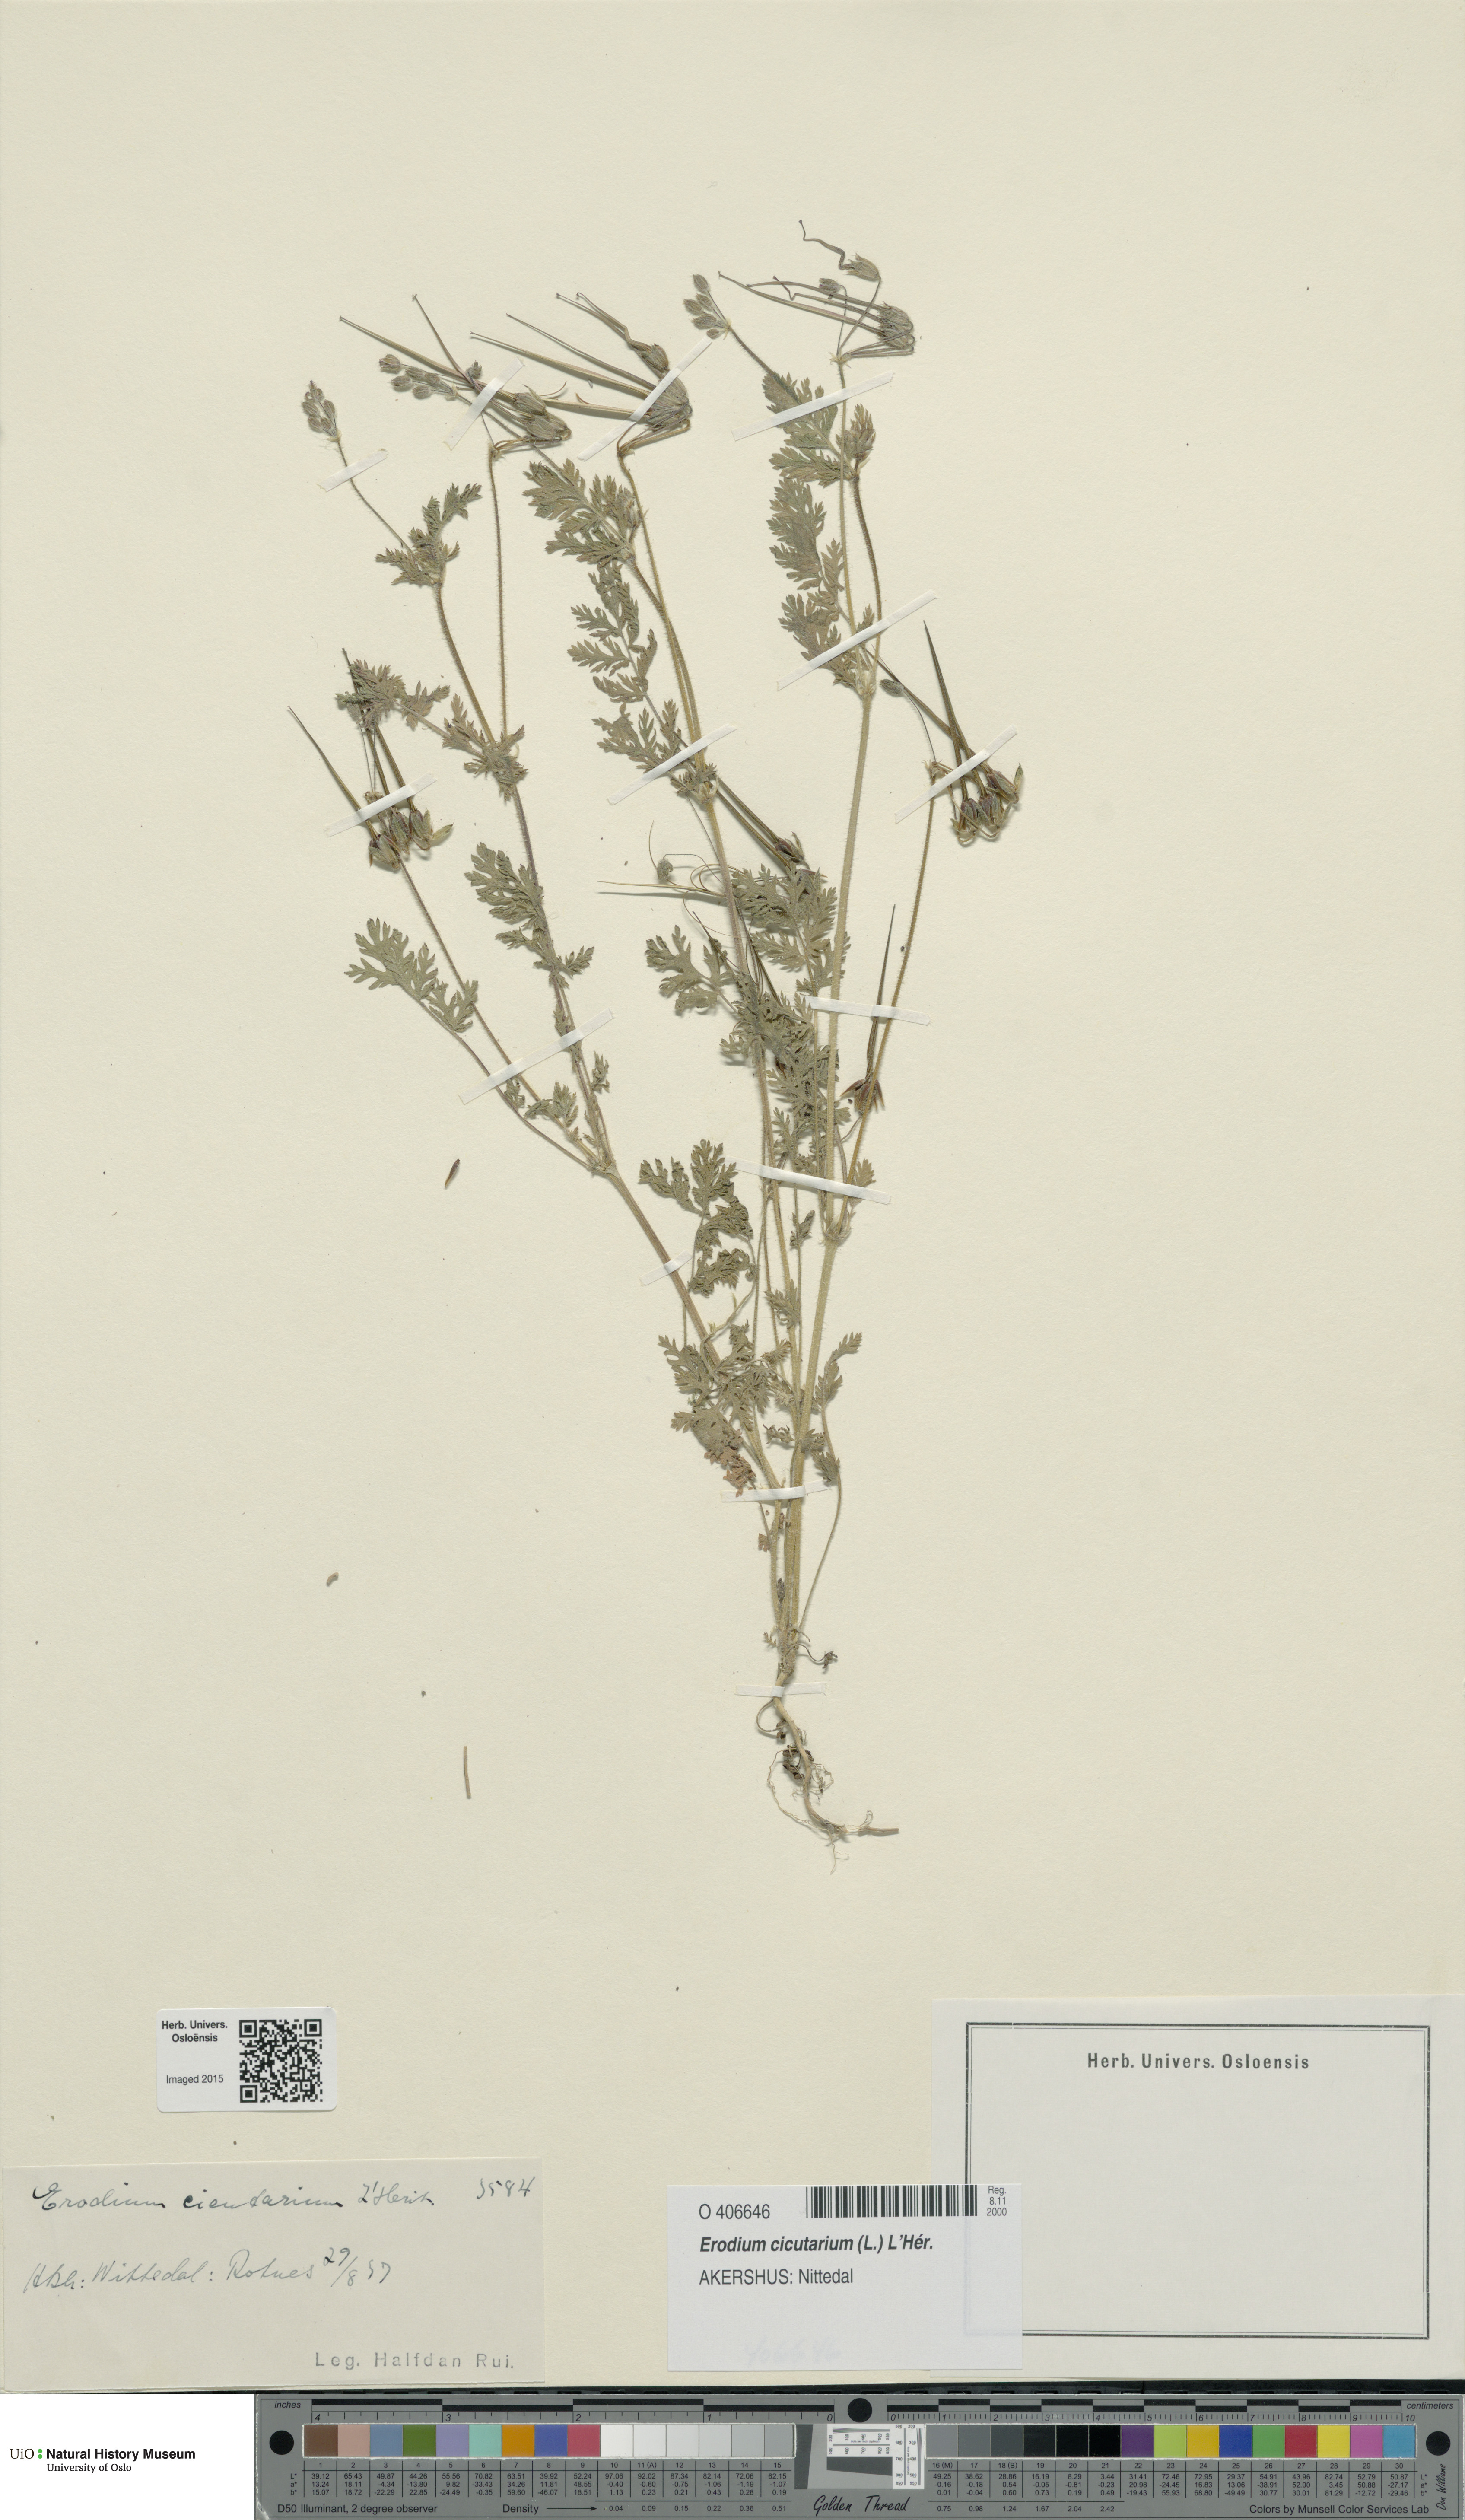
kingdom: Plantae
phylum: Tracheophyta
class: Magnoliopsida
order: Geraniales
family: Geraniaceae
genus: Erodium
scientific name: Erodium cicutarium
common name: Common stork's-bill
